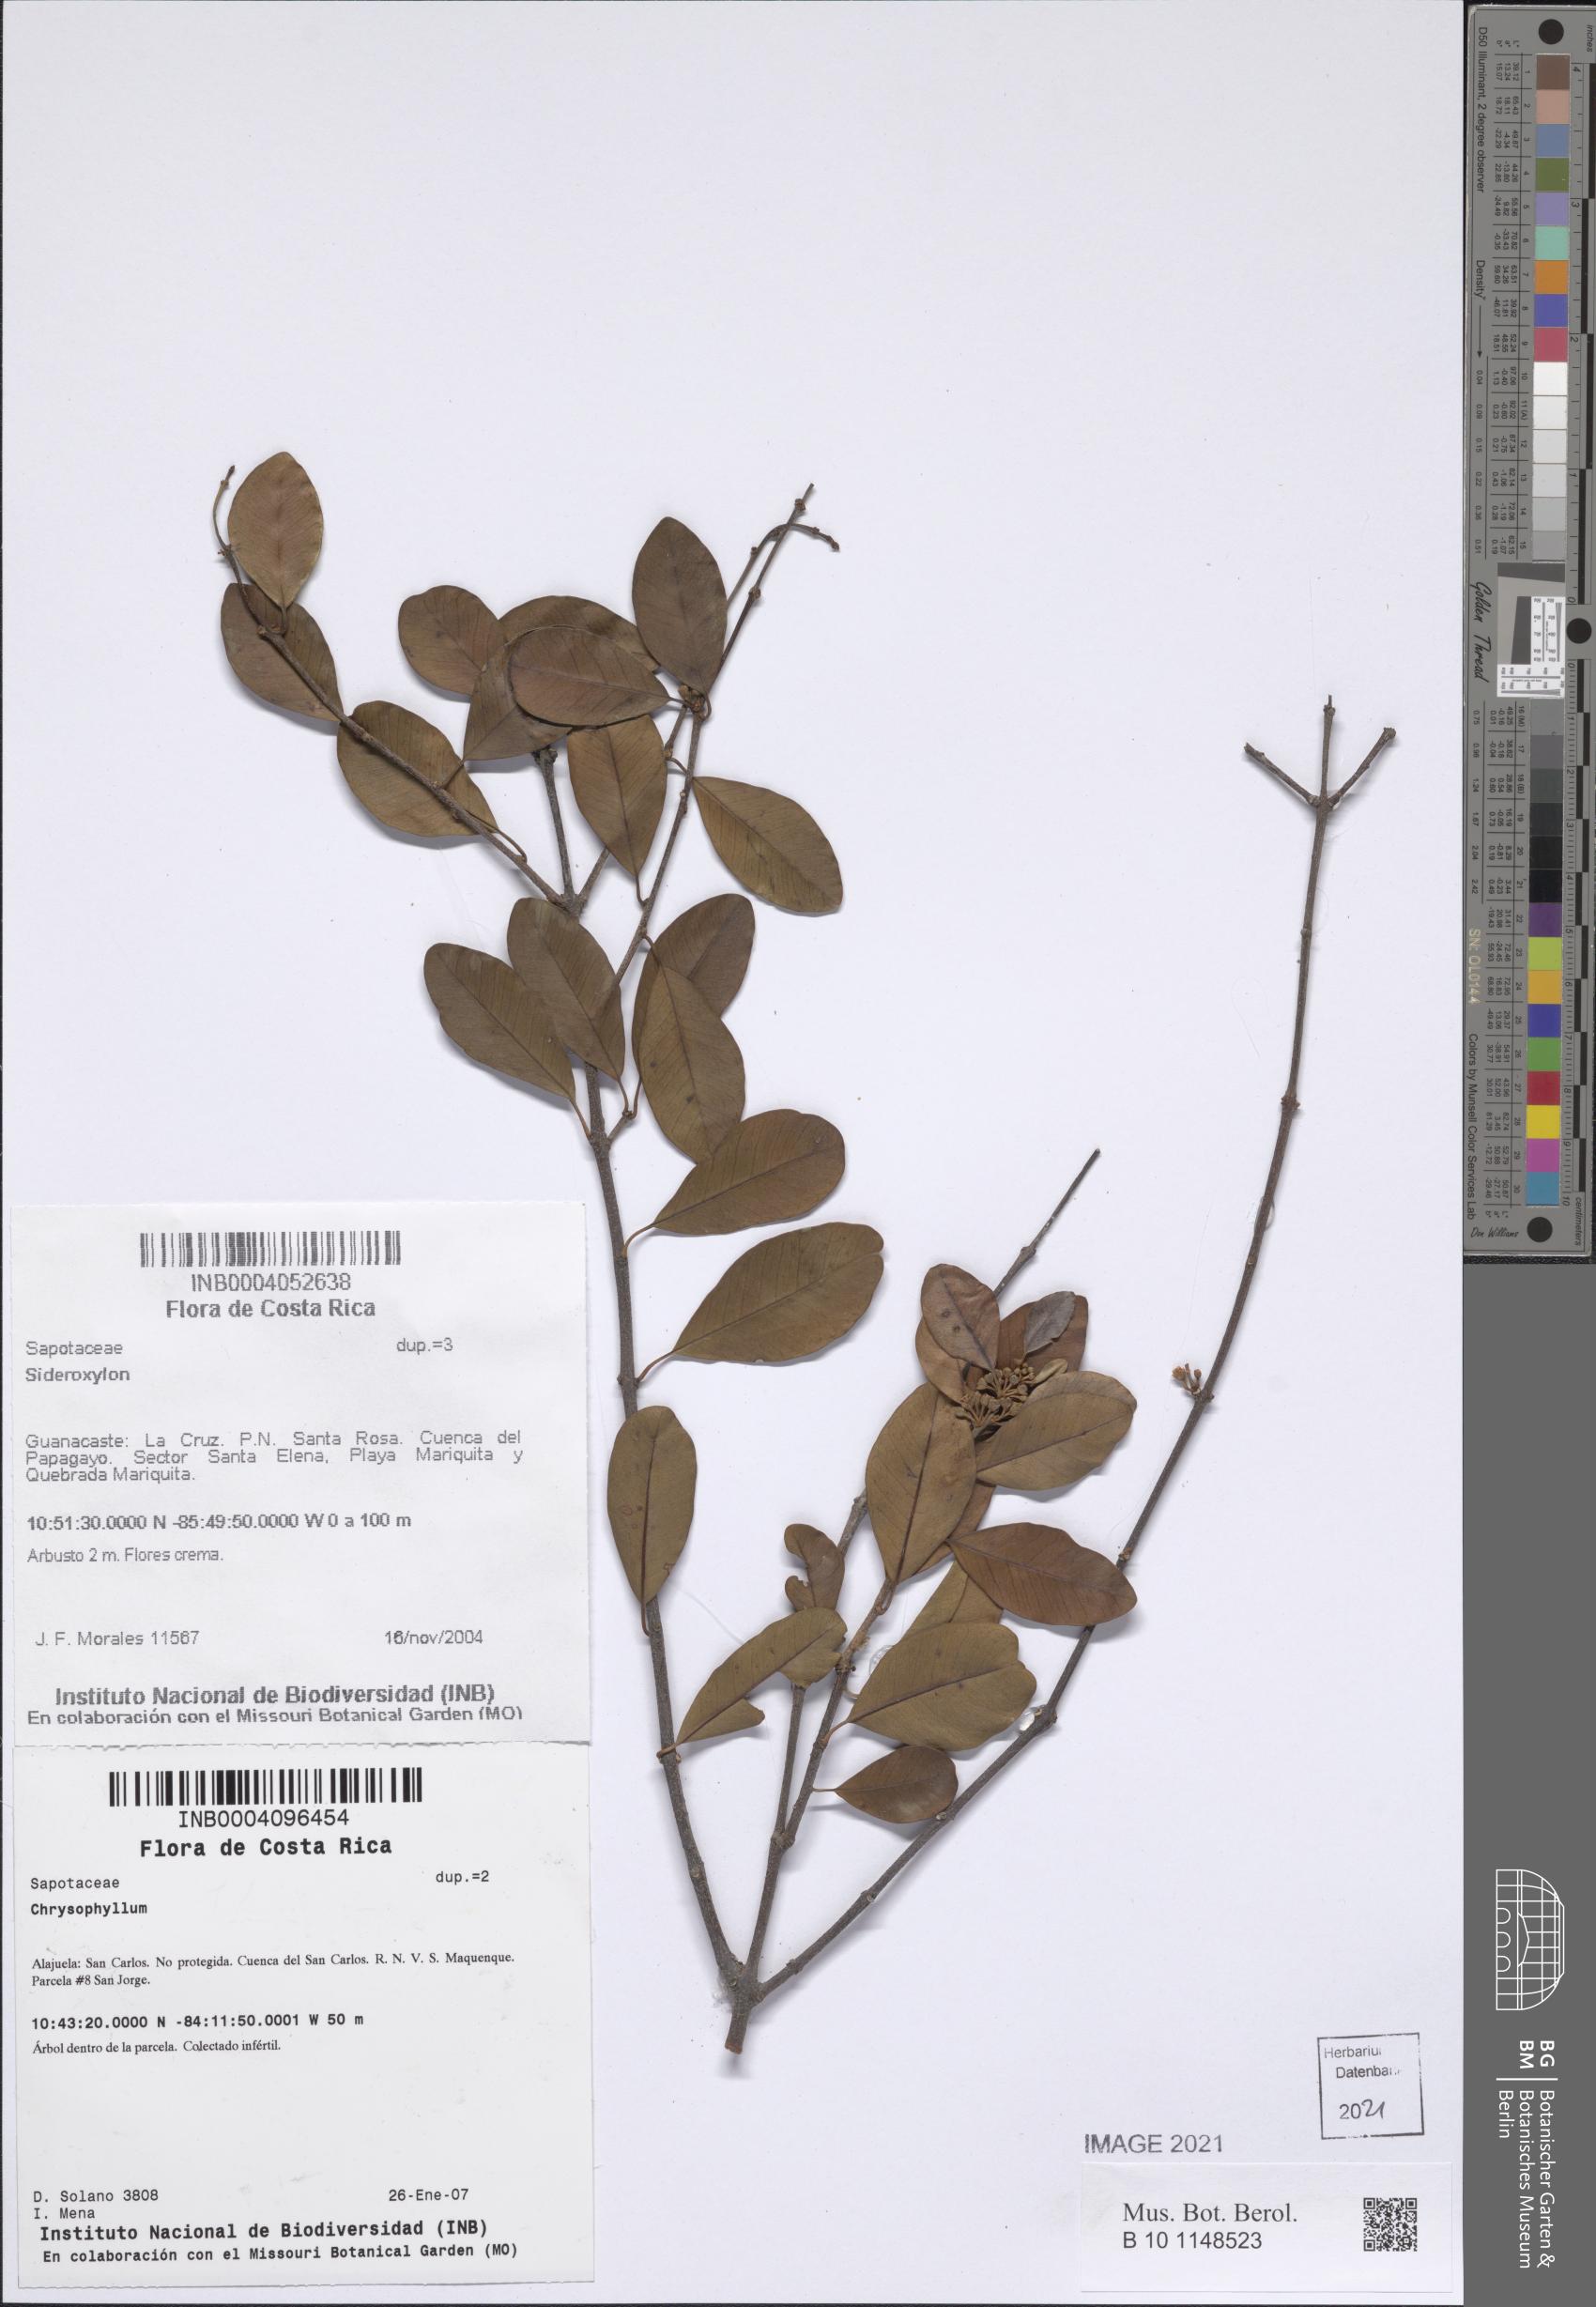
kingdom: Plantae
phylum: Tracheophyta
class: Magnoliopsida
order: Ericales
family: Sapotaceae
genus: Chrysophyllum
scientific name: Chrysophyllum argenteum
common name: Smooth star apple
